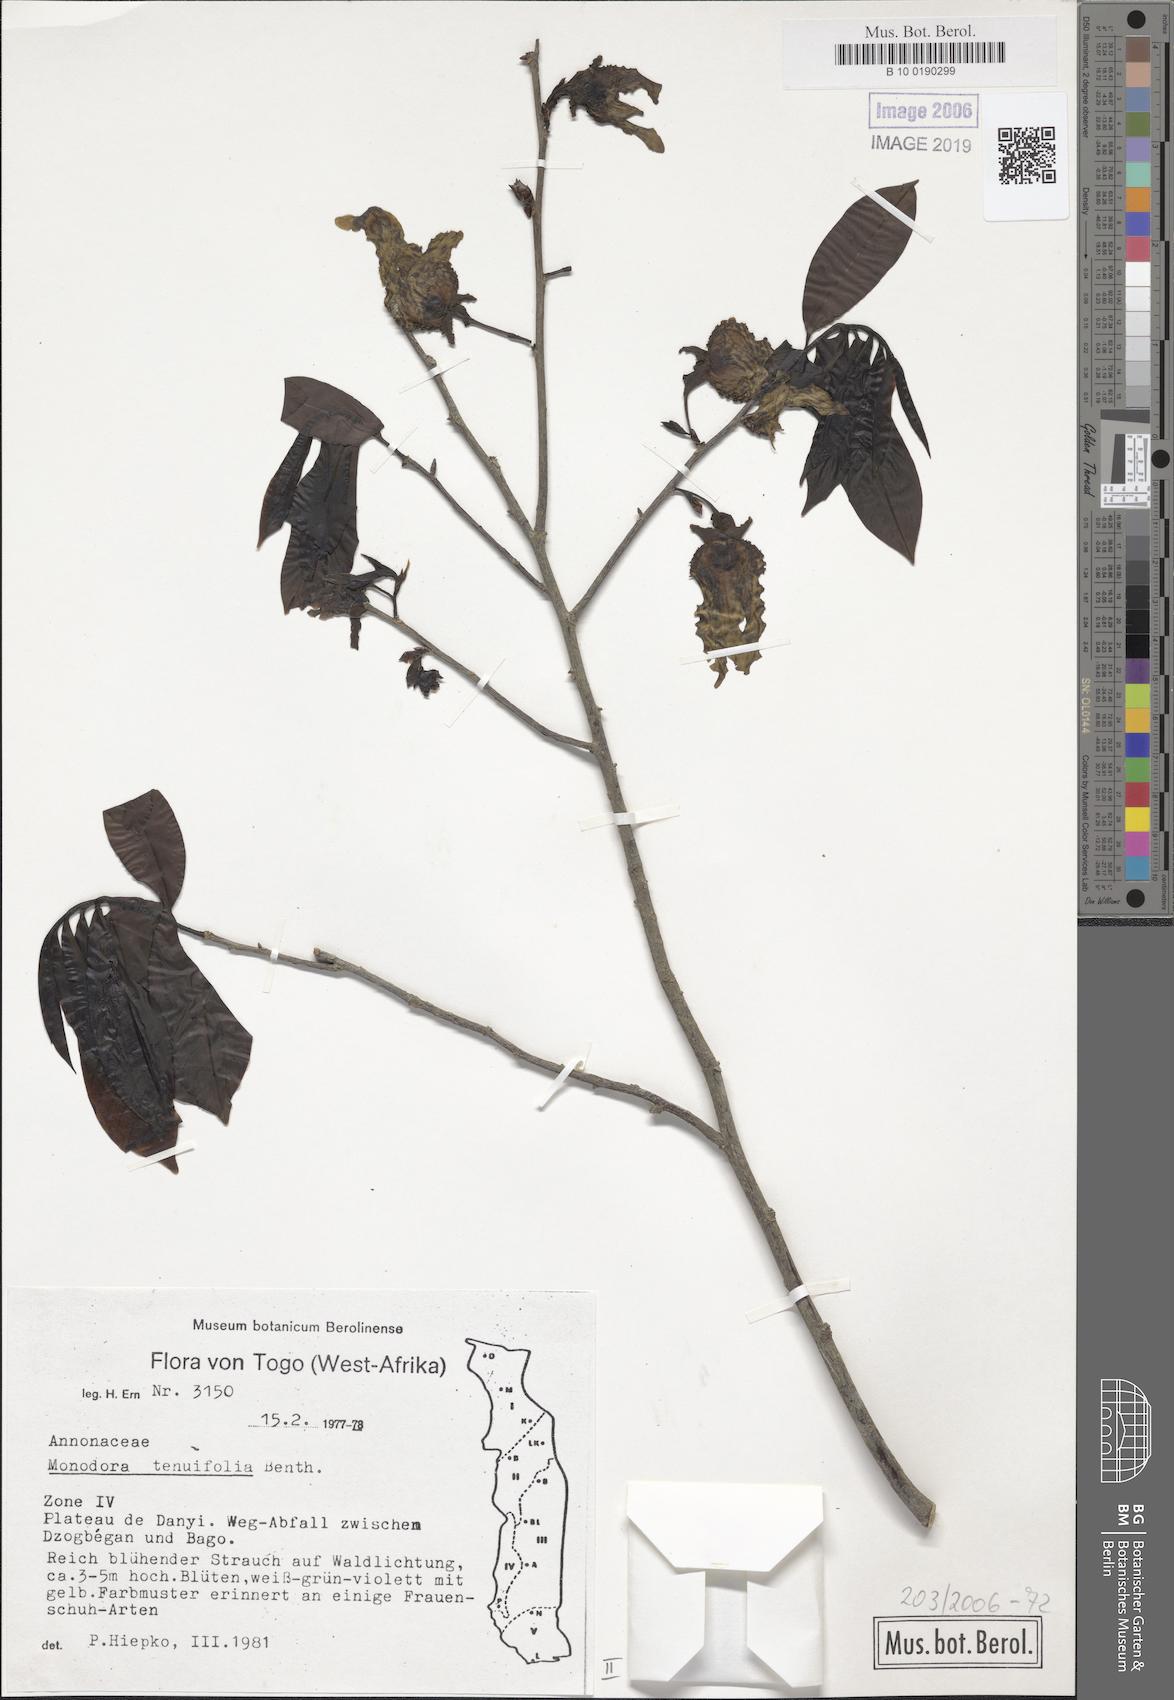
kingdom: Plantae
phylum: Tracheophyta
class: Magnoliopsida
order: Magnoliales
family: Annonaceae
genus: Monodora
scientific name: Monodora tenuifolia
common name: Orchidtree
